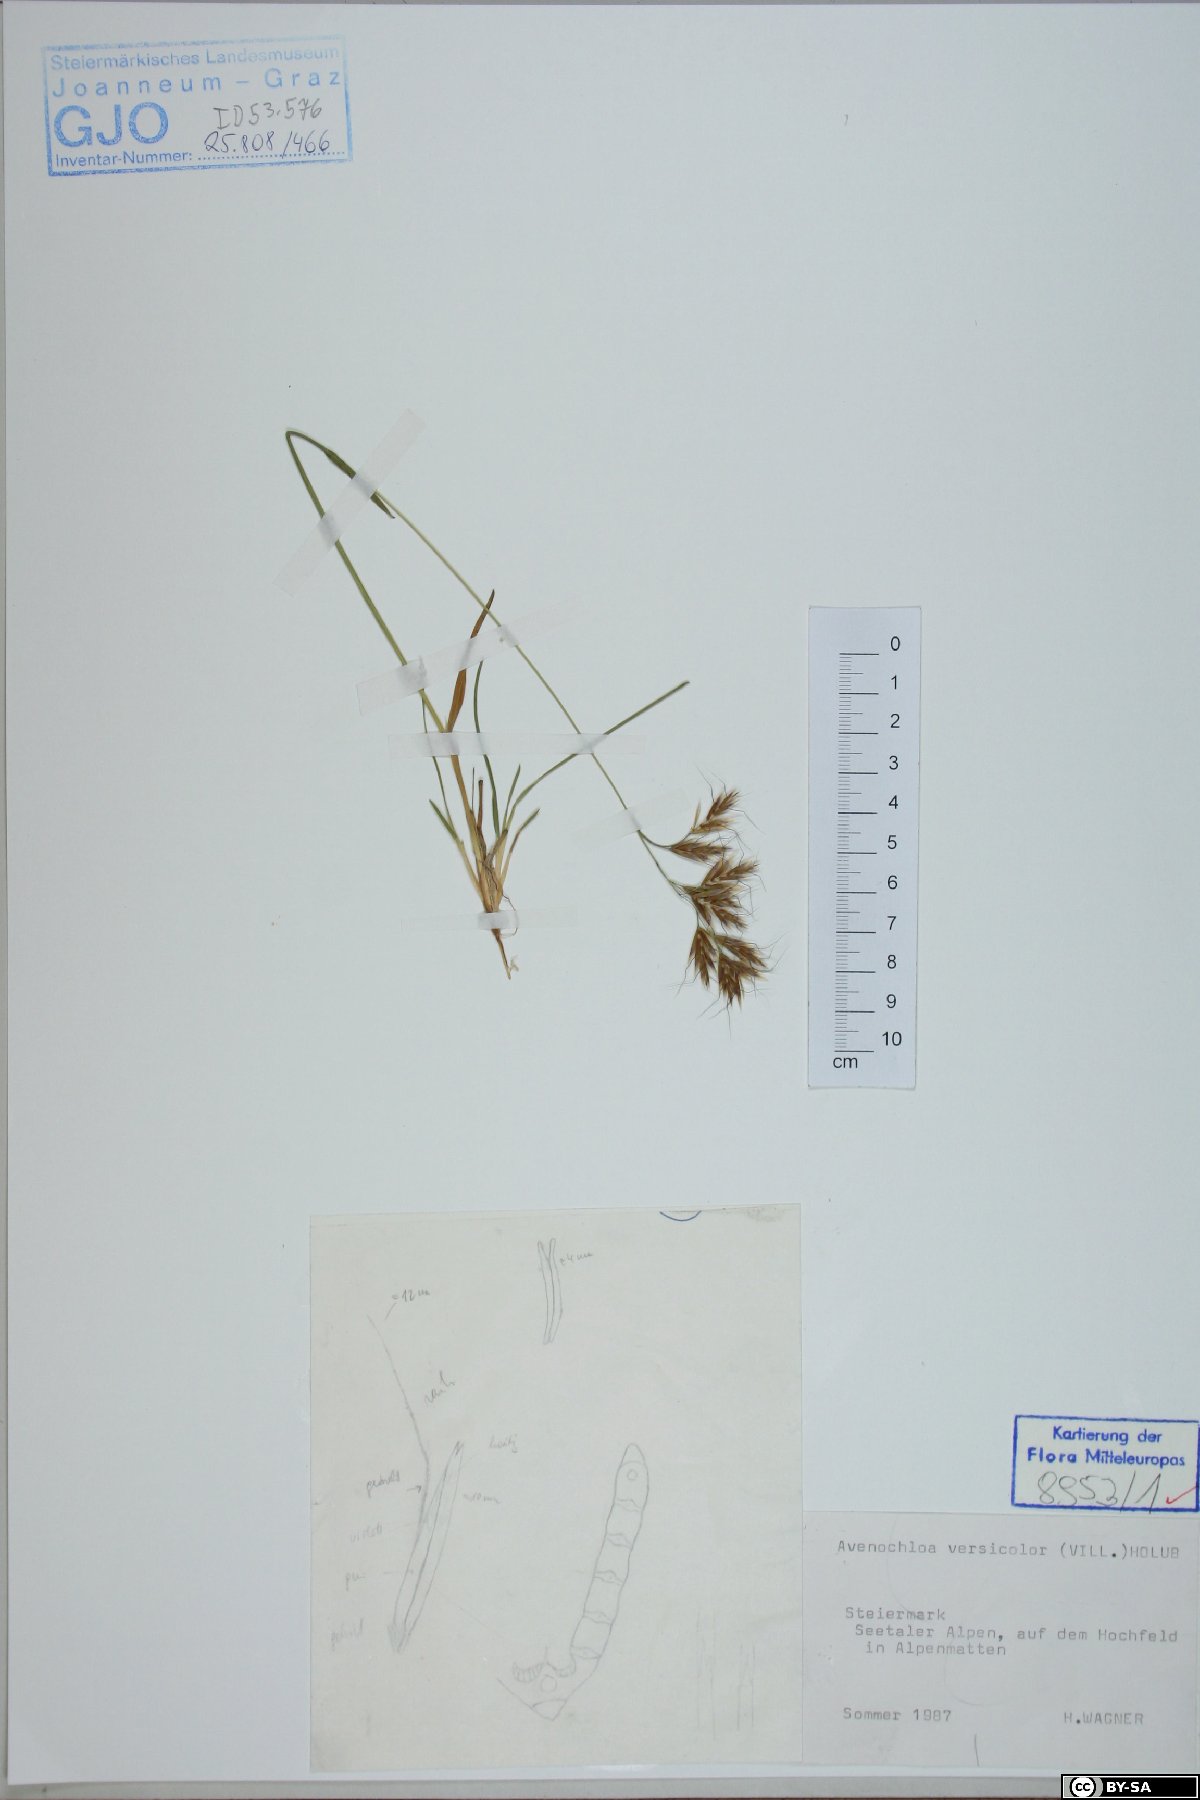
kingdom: Plantae
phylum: Tracheophyta
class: Liliopsida
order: Poales
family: Poaceae
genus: Helictochloa
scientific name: Helictochloa versicolor
